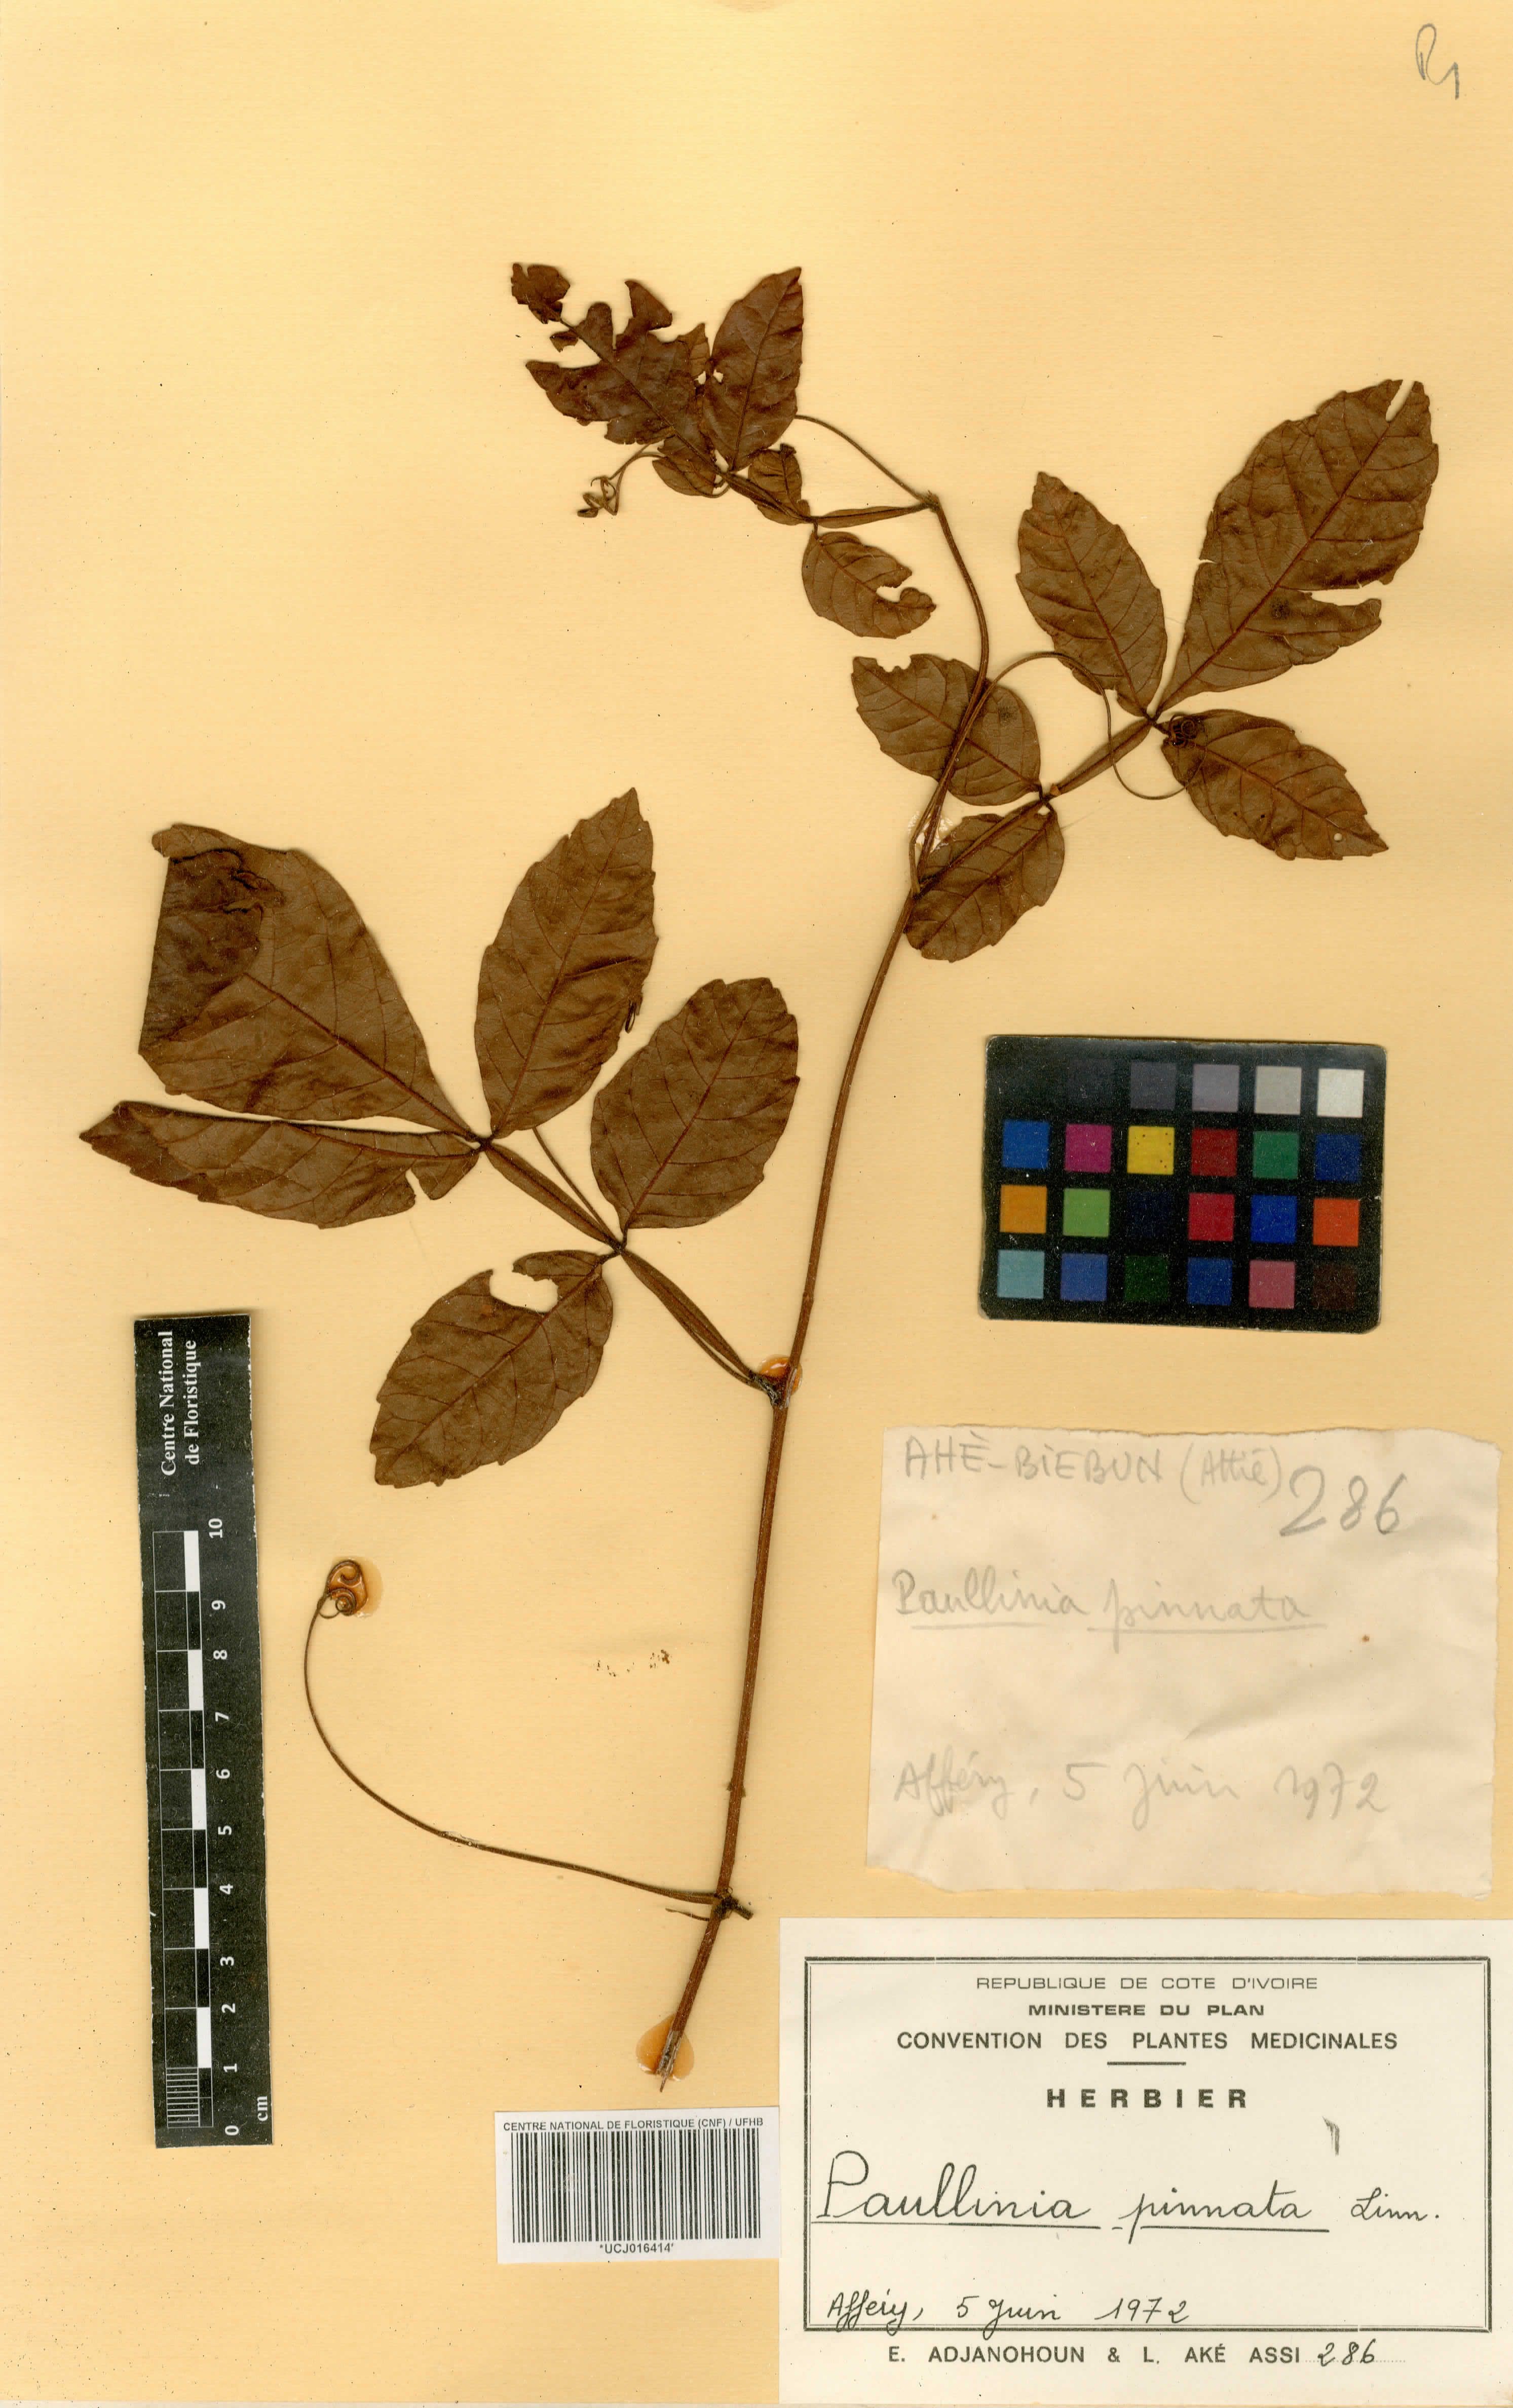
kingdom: Plantae
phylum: Tracheophyta
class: Magnoliopsida
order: Sapindales
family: Sapindaceae
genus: Paullinia
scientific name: Paullinia pinnata
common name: Barbasco
